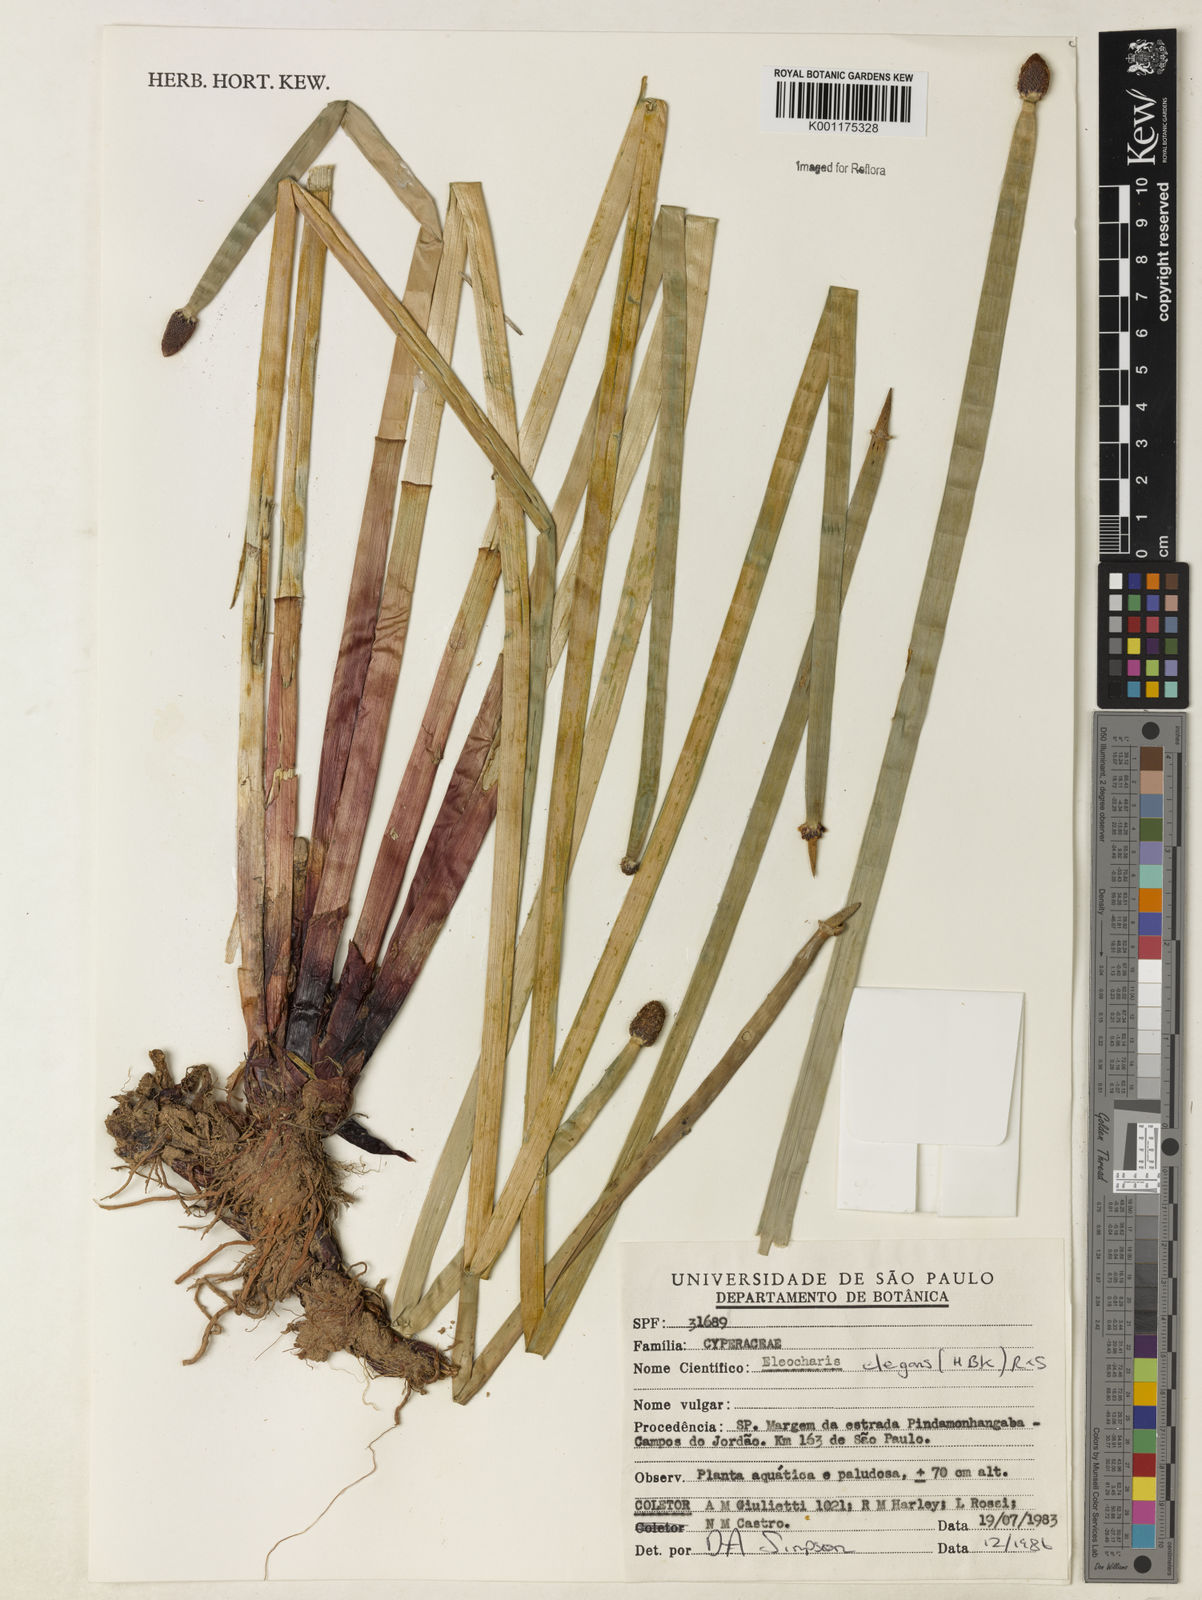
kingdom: Plantae
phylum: Tracheophyta
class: Liliopsida
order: Poales
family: Cyperaceae
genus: Eleocharis
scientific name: Eleocharis elegans
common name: Elegant spike-rush
